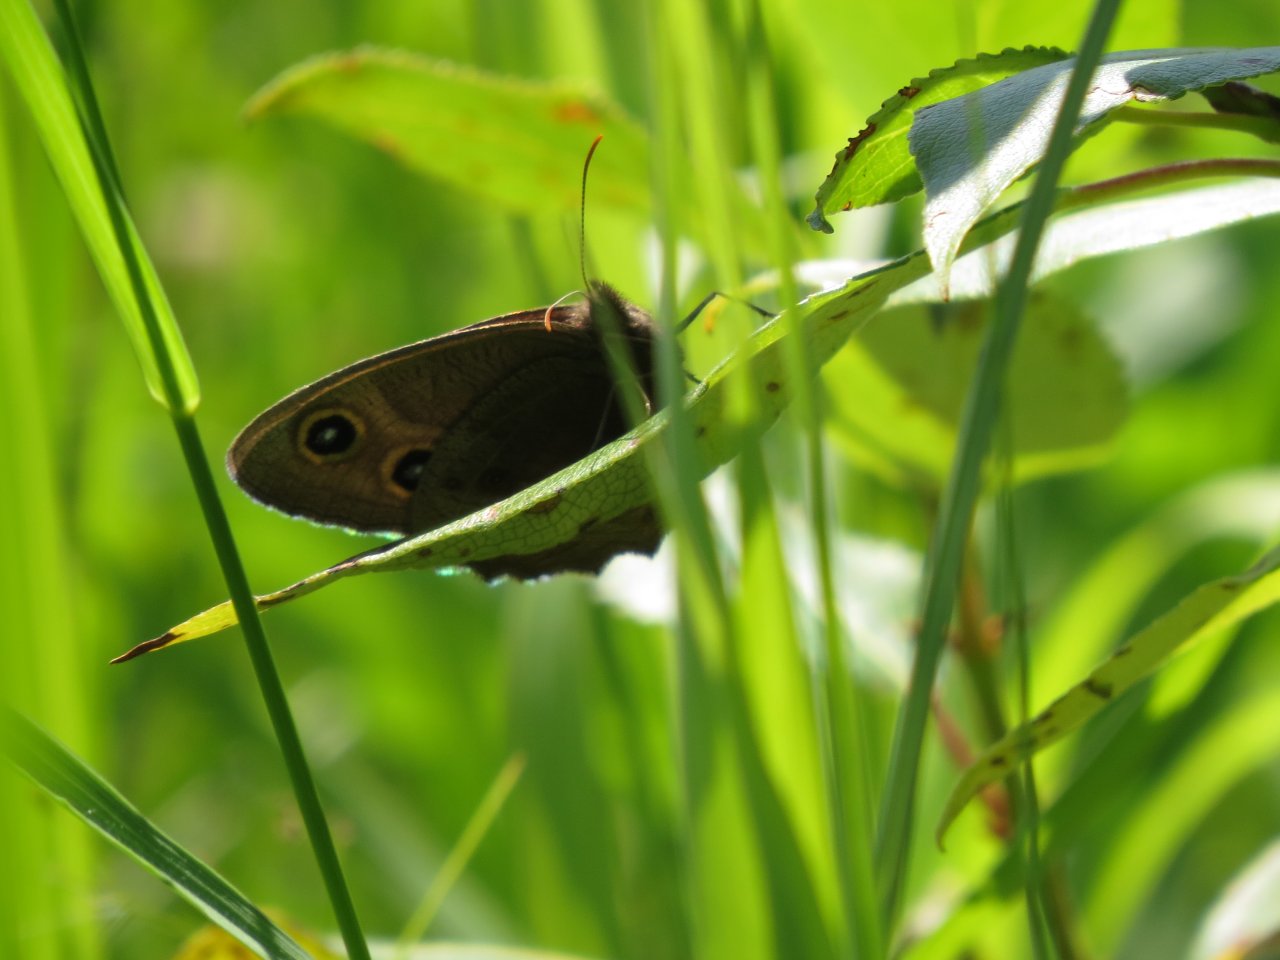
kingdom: Animalia
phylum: Arthropoda
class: Insecta
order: Lepidoptera
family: Nymphalidae
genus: Cercyonis
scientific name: Cercyonis pegala
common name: Common Wood-Nymph
